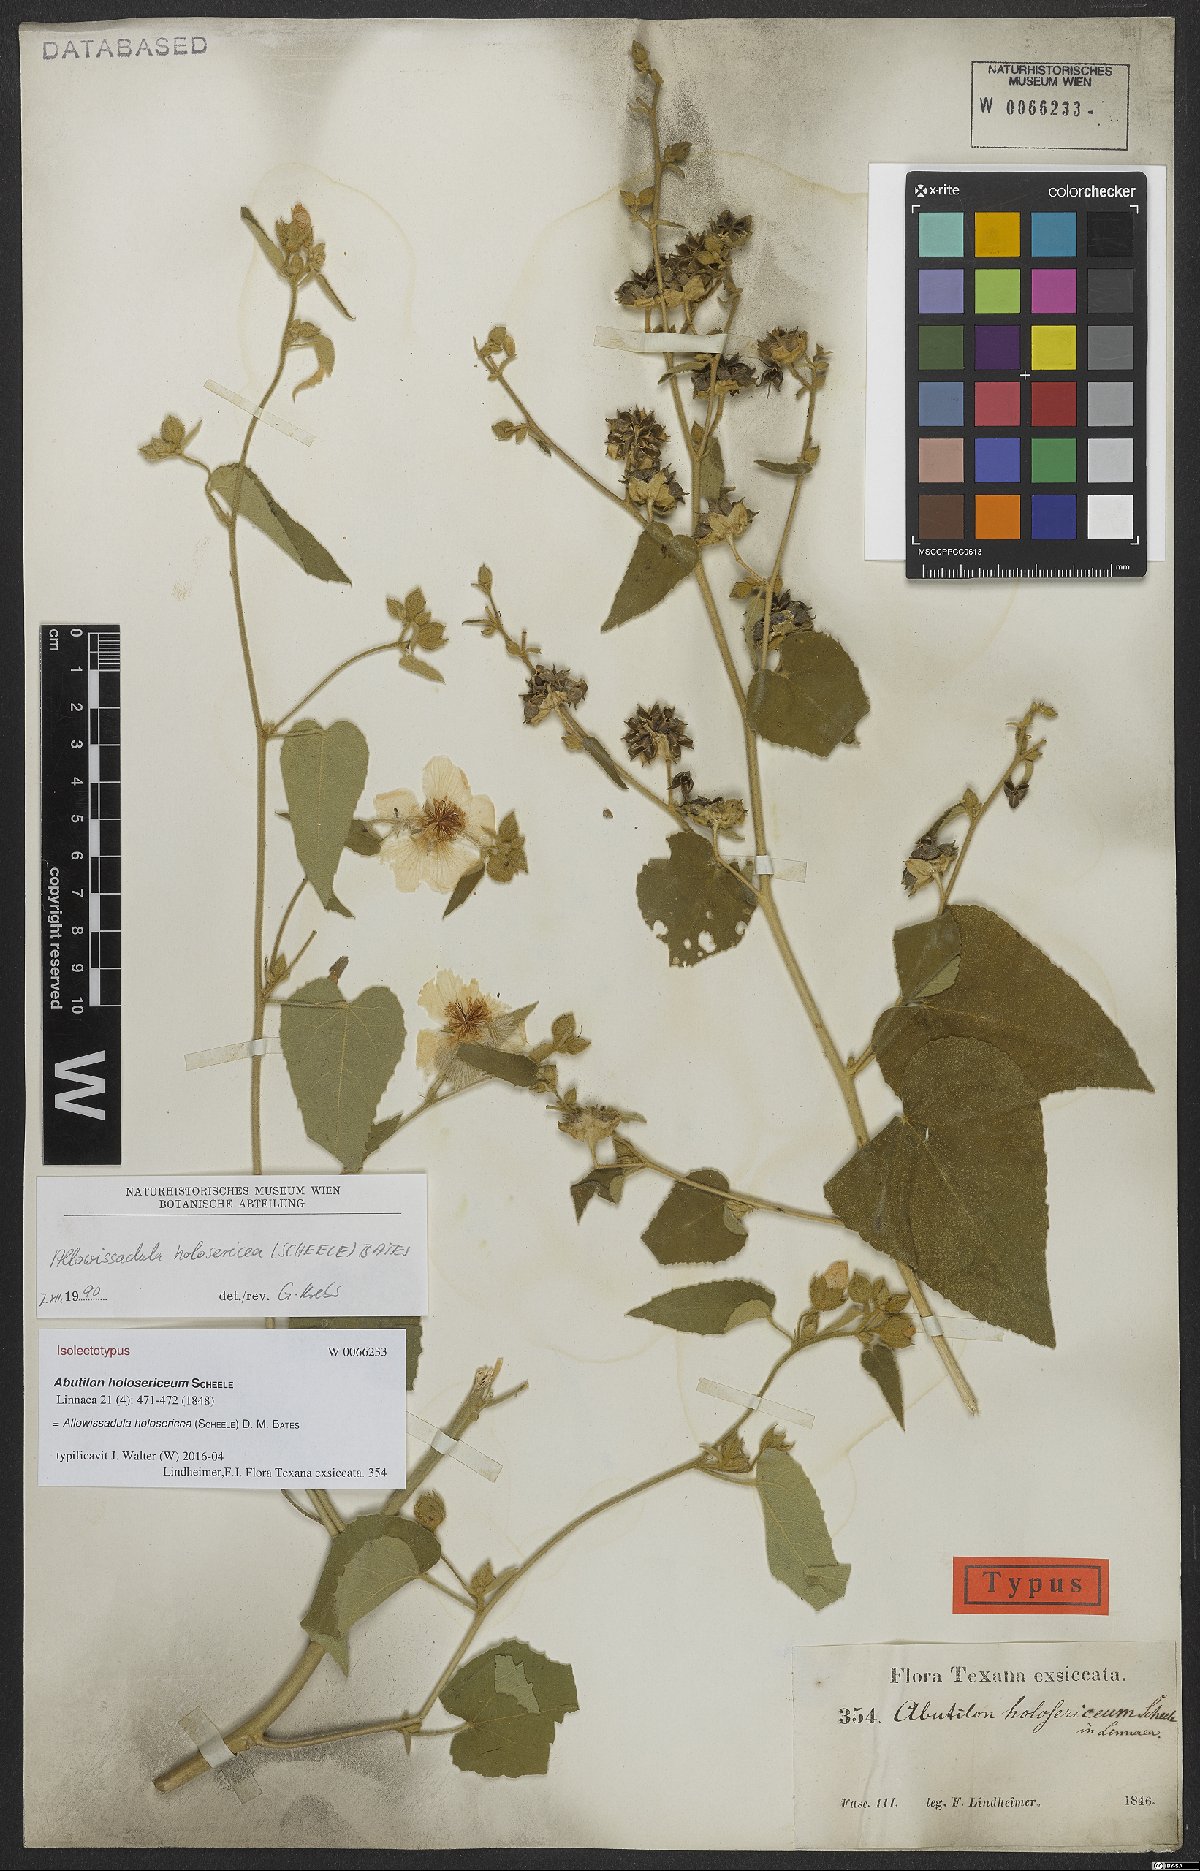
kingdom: Plantae
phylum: Tracheophyta
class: Magnoliopsida
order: Malvales
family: Malvaceae
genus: Allowissadula
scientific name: Allowissadula holosericea
